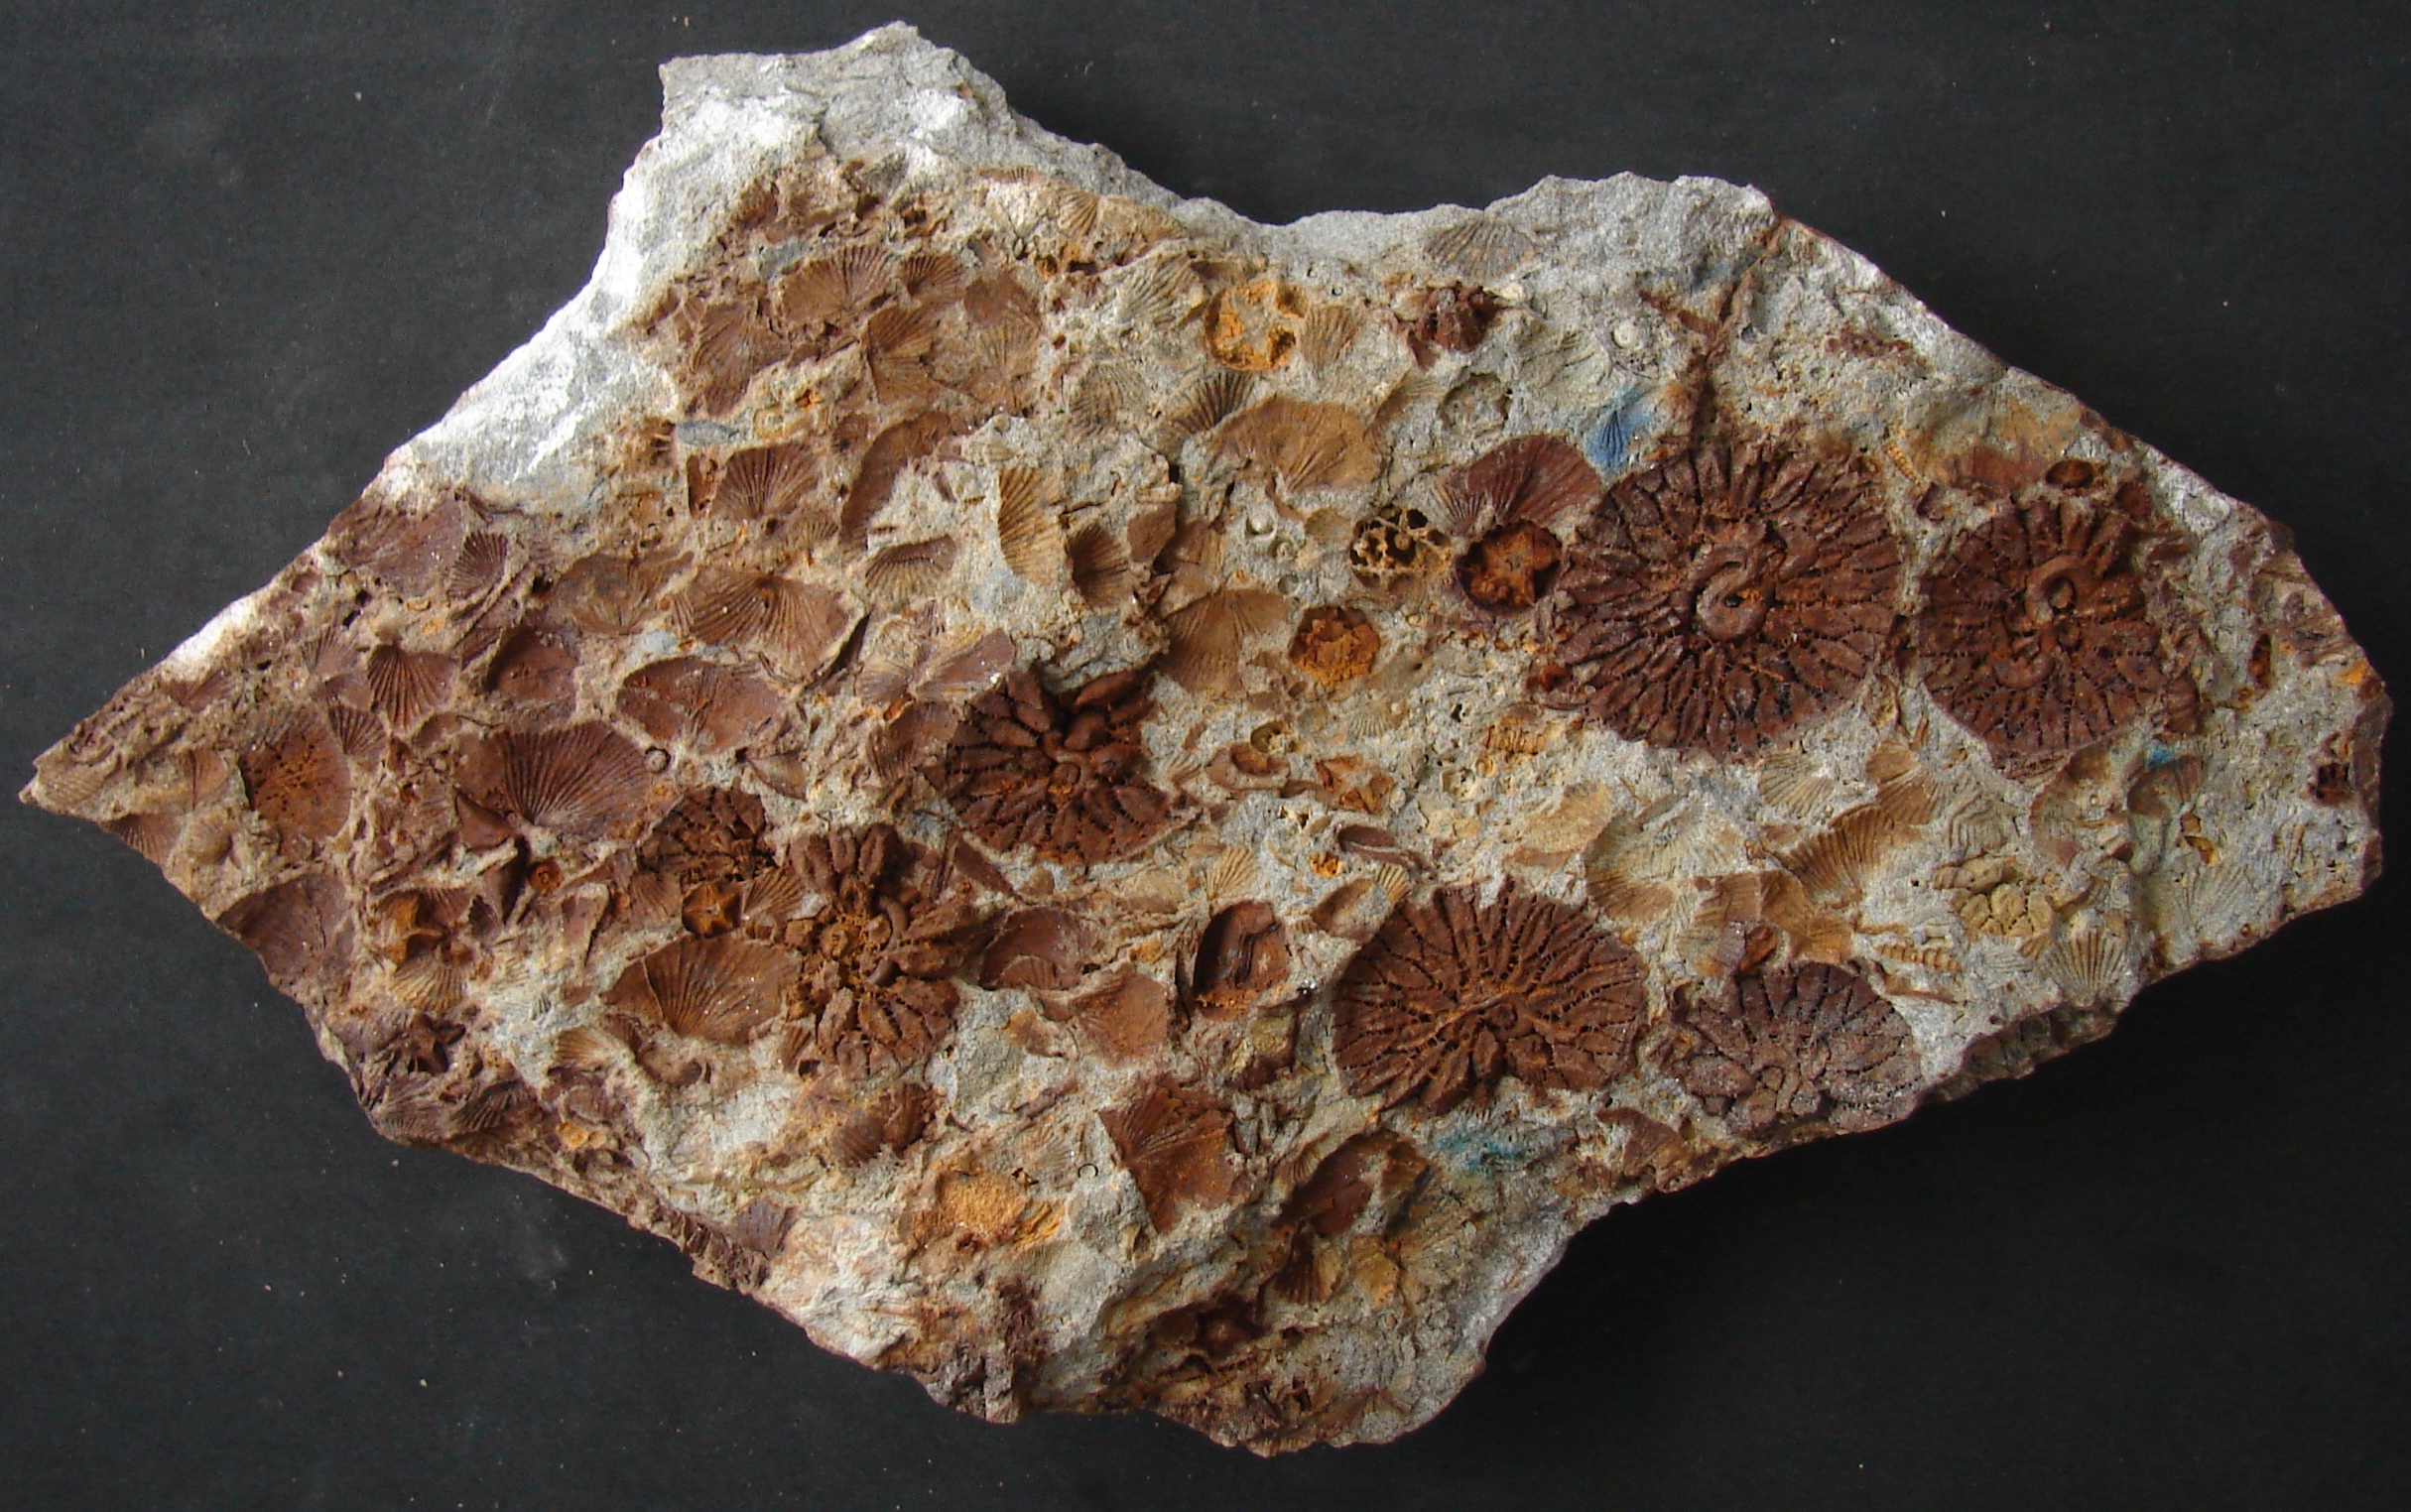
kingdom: Animalia
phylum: Cnidaria
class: Anthozoa
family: Micheliniidae
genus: Pleurodictyum
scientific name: Pleurodictyum
